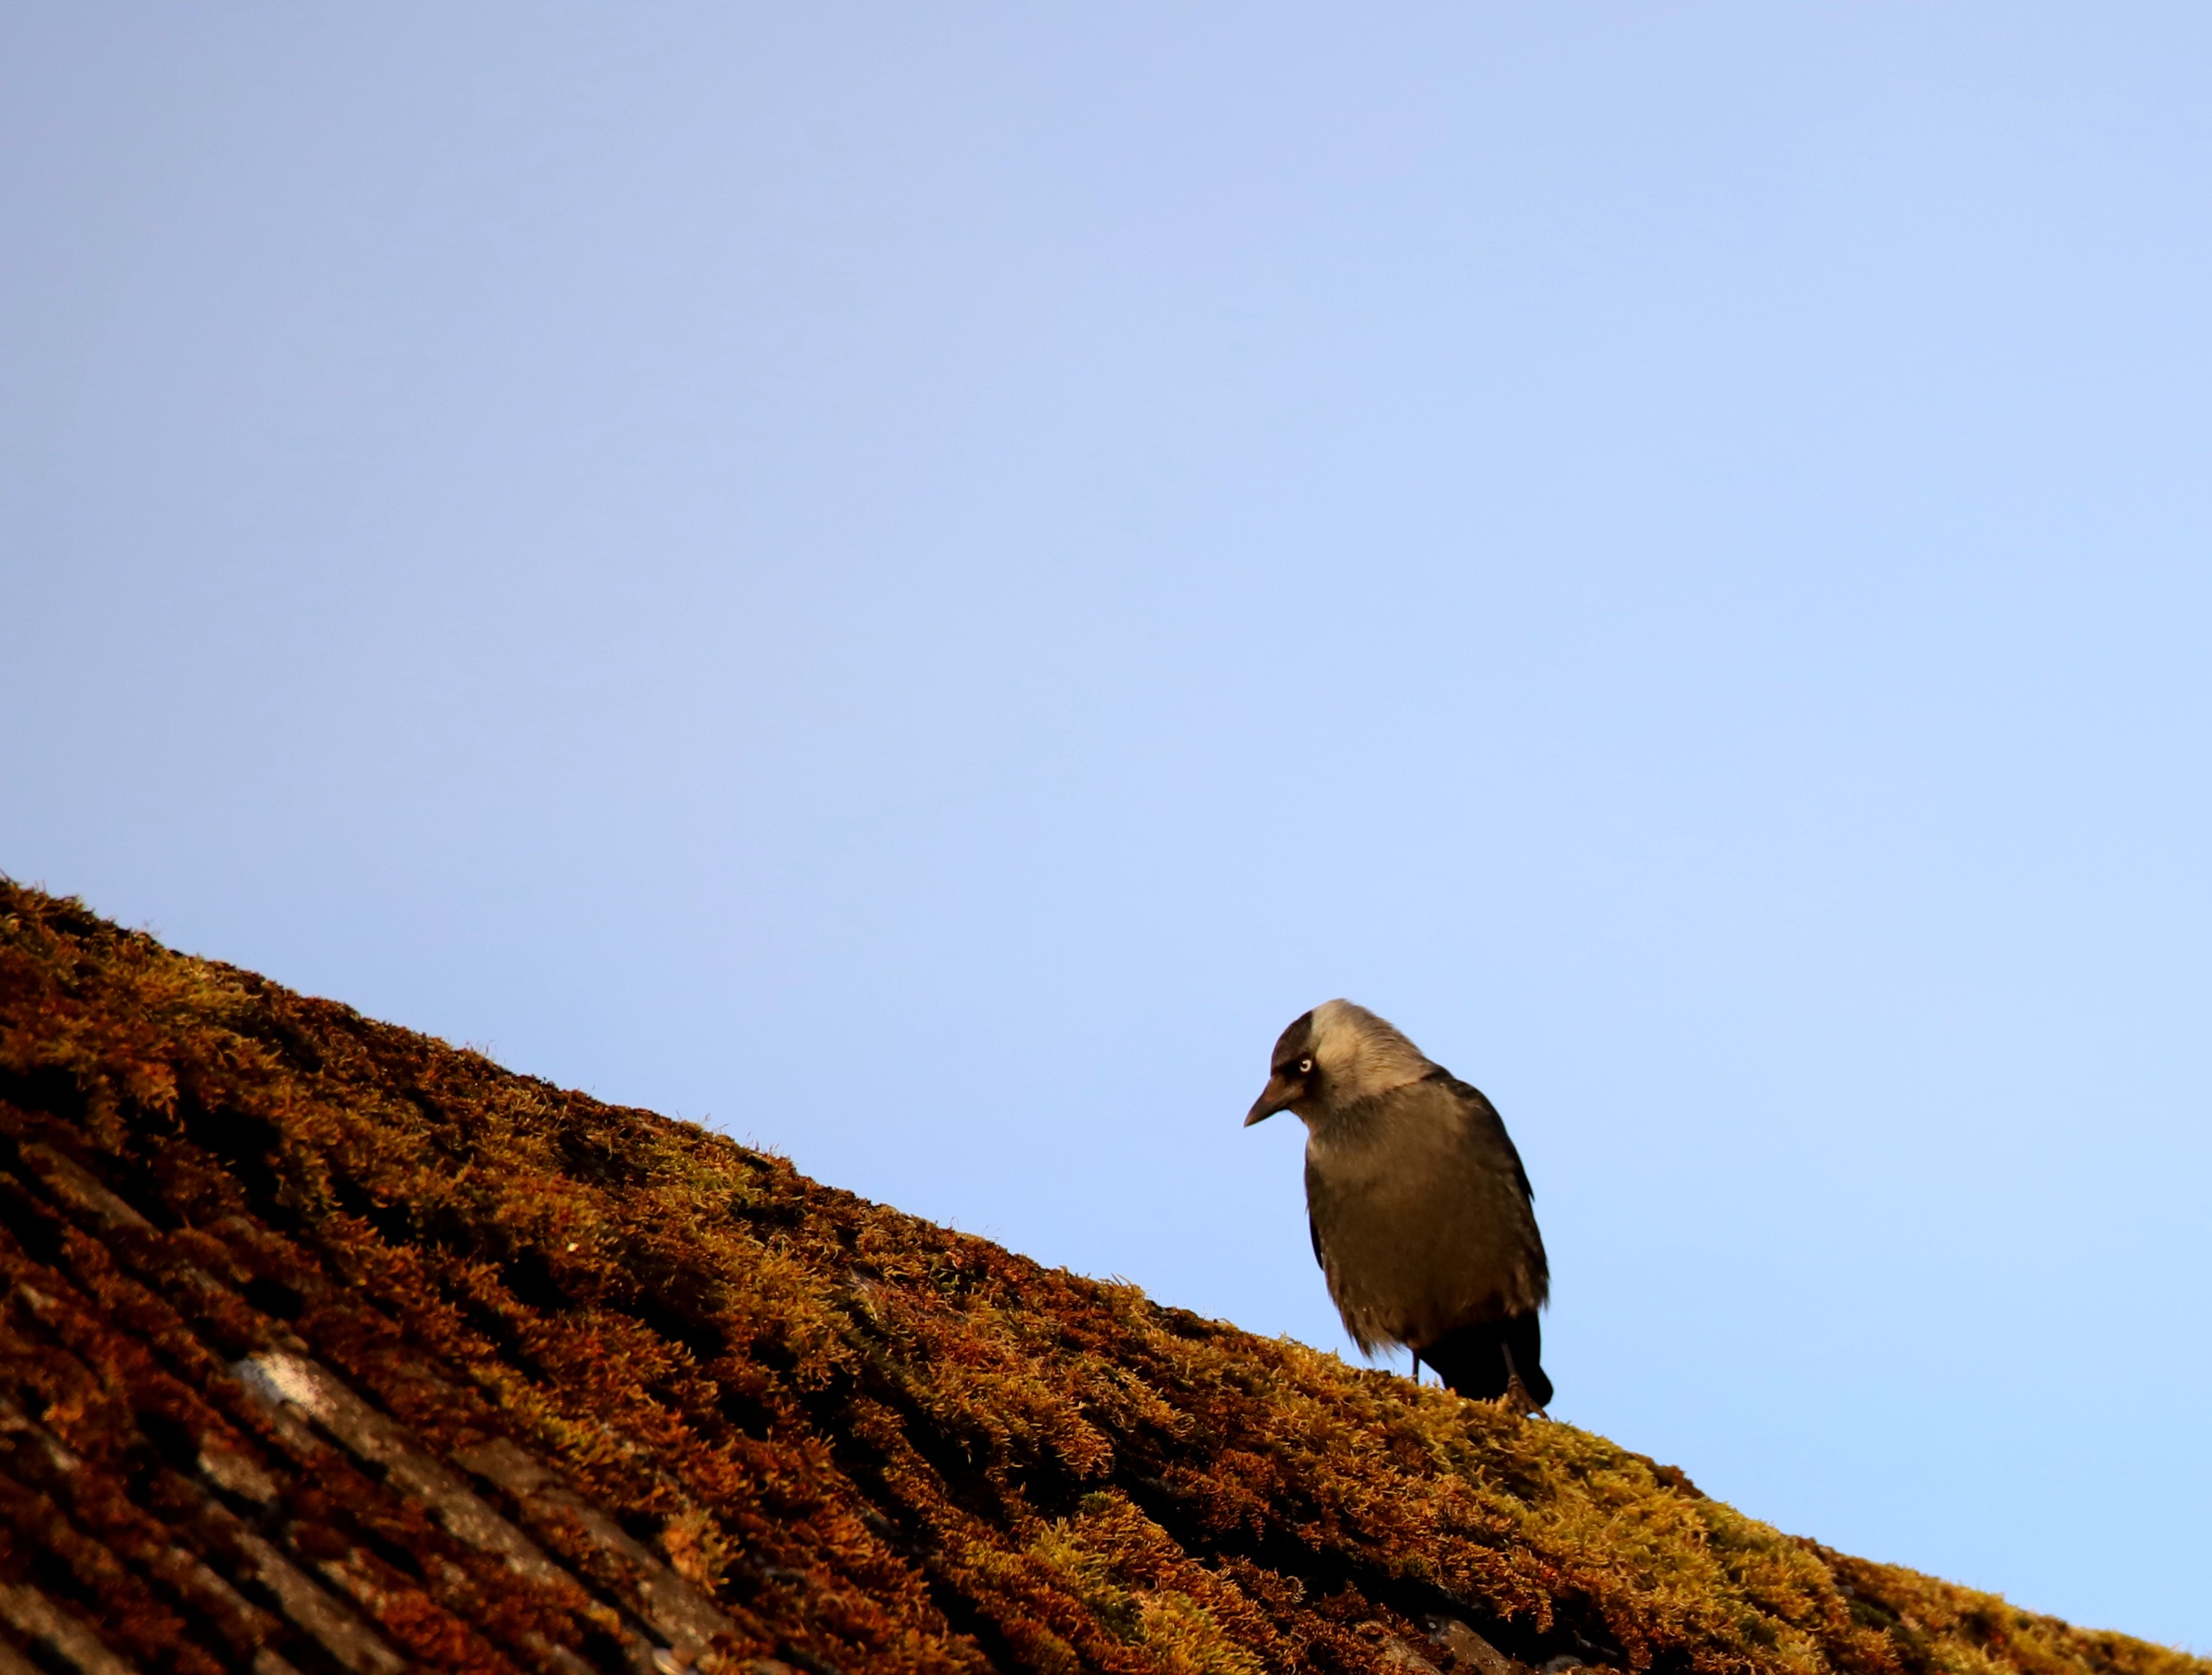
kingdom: Animalia
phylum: Chordata
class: Aves
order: Passeriformes
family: Corvidae
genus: Coloeus
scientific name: Coloeus monedula
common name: Allike
